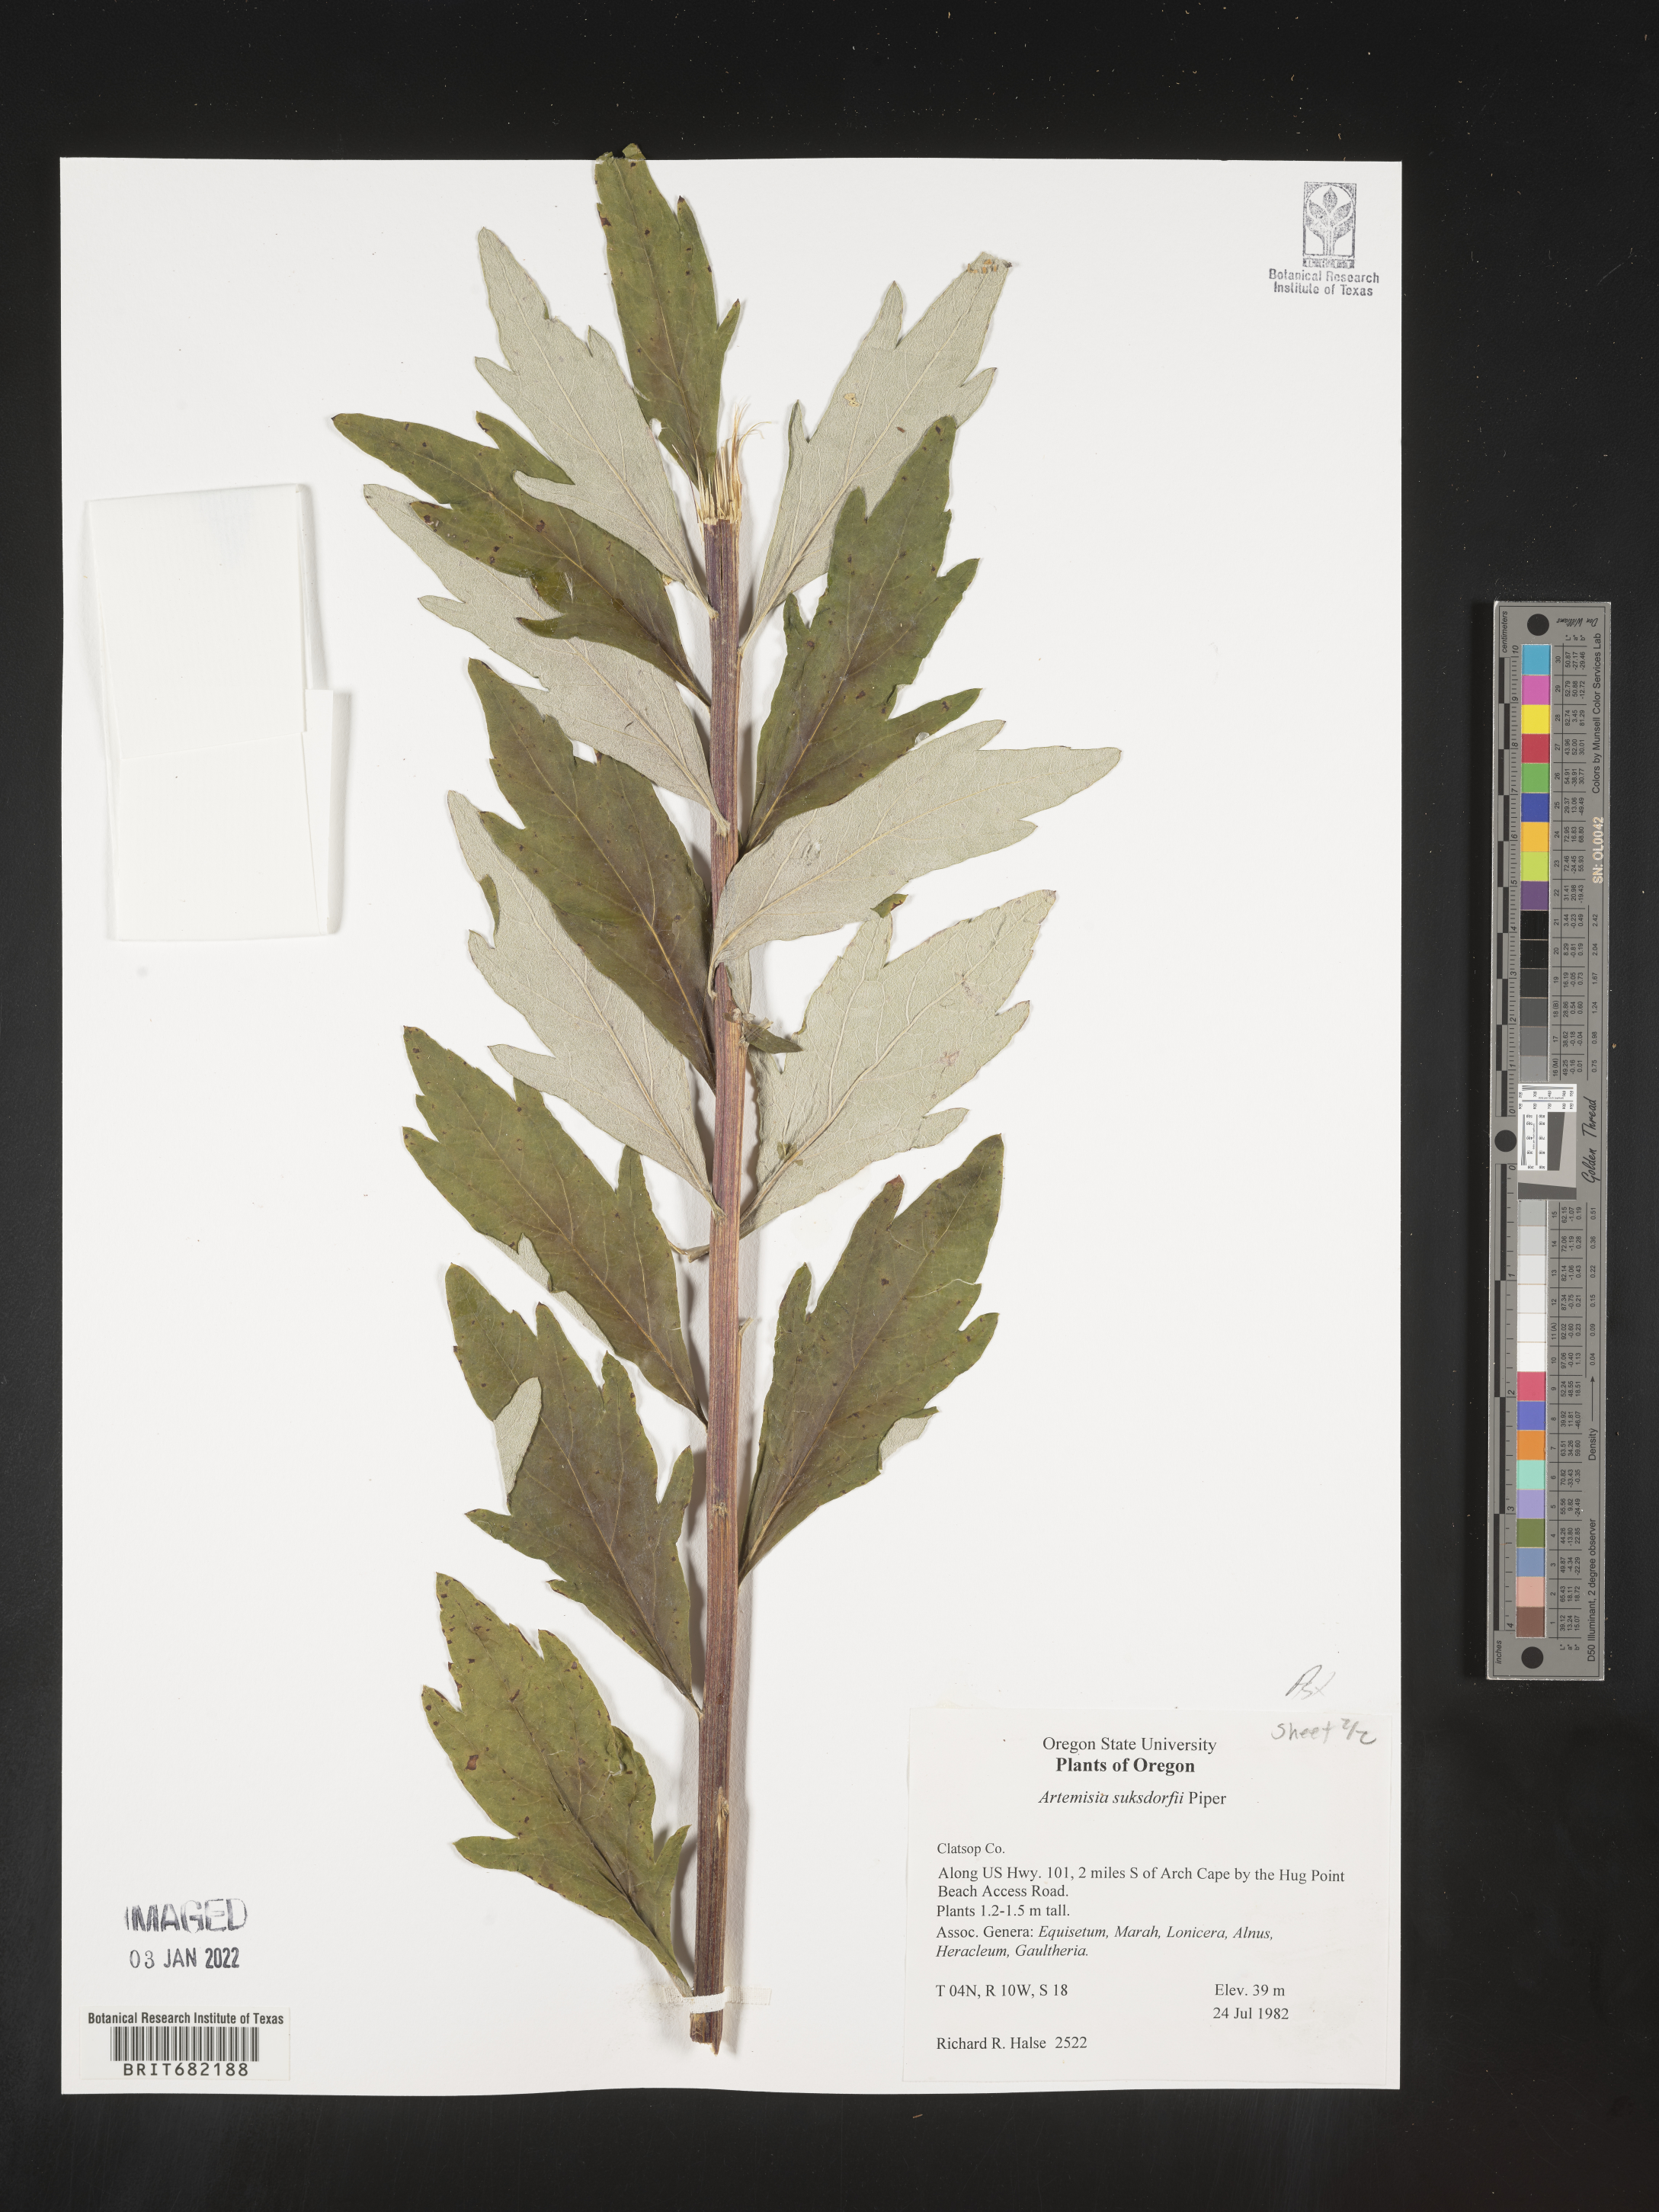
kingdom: Plantae
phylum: Tracheophyta
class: Magnoliopsida
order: Asterales
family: Asteraceae
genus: Artemisia
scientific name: Artemisia suksdorfii
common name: Suksdorf sagewort
